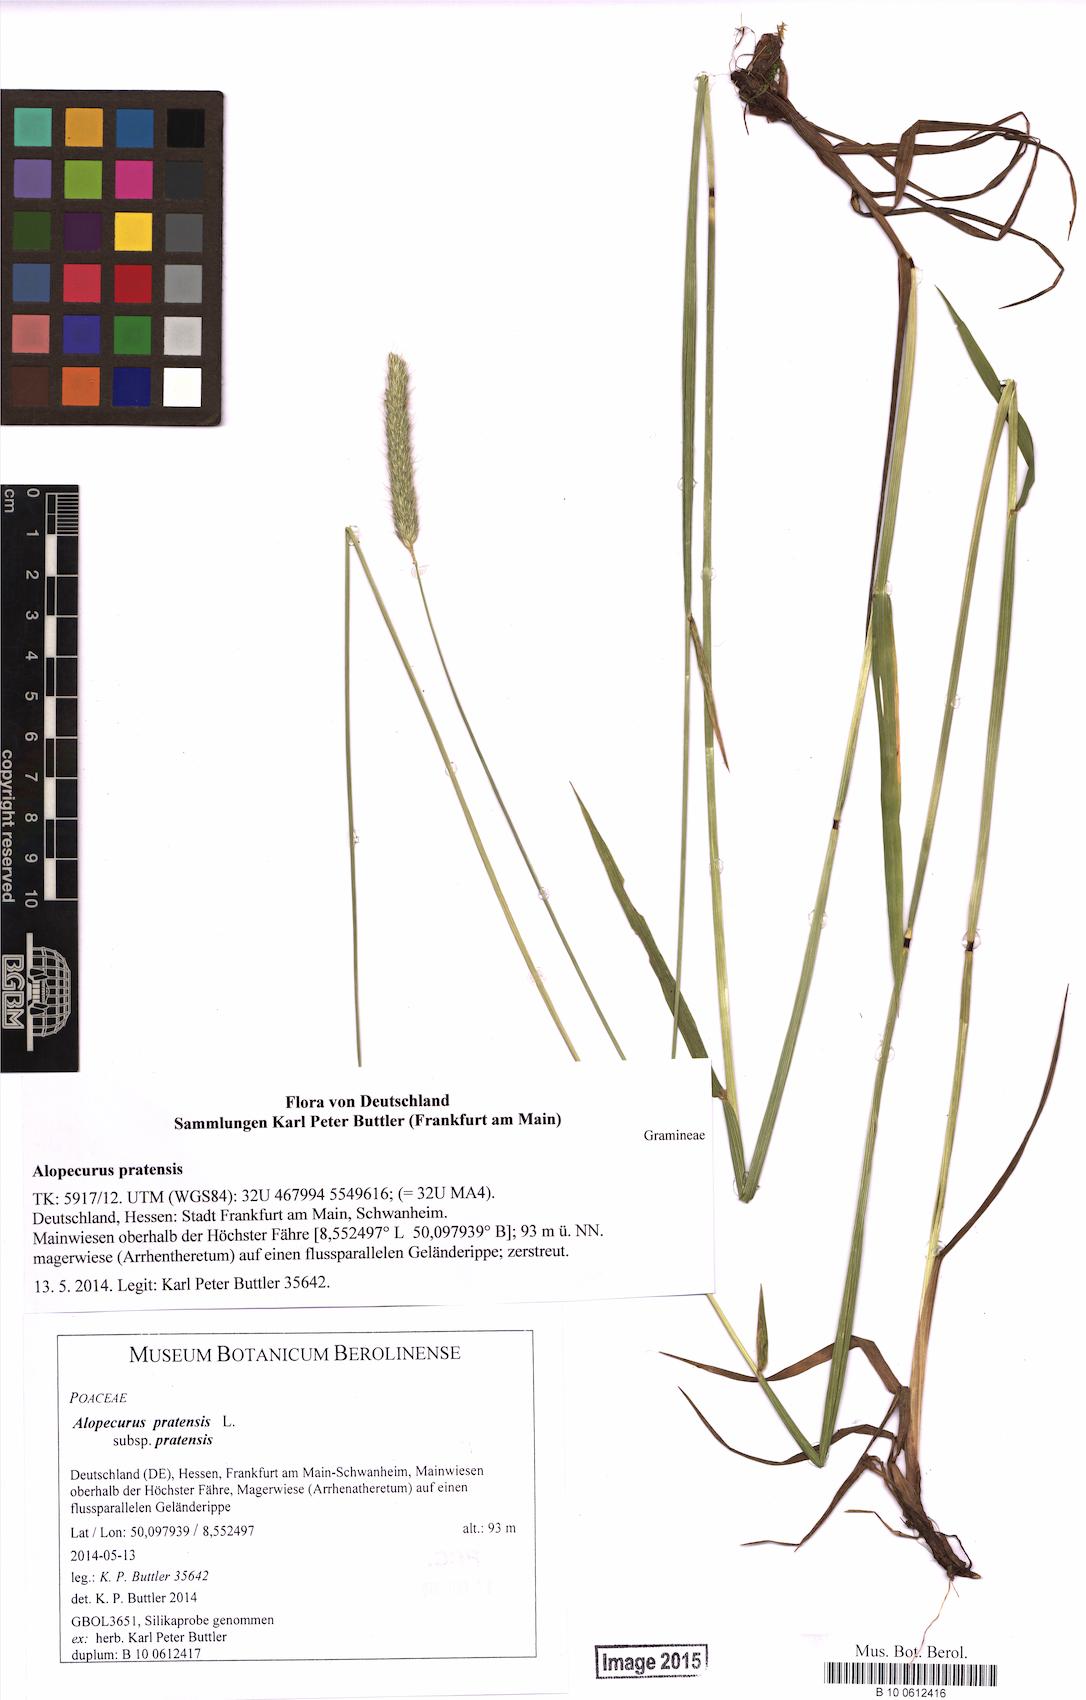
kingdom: Plantae
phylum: Tracheophyta
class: Liliopsida
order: Poales
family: Poaceae
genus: Alopecurus
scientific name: Alopecurus pratensis
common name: Meadow foxtail
